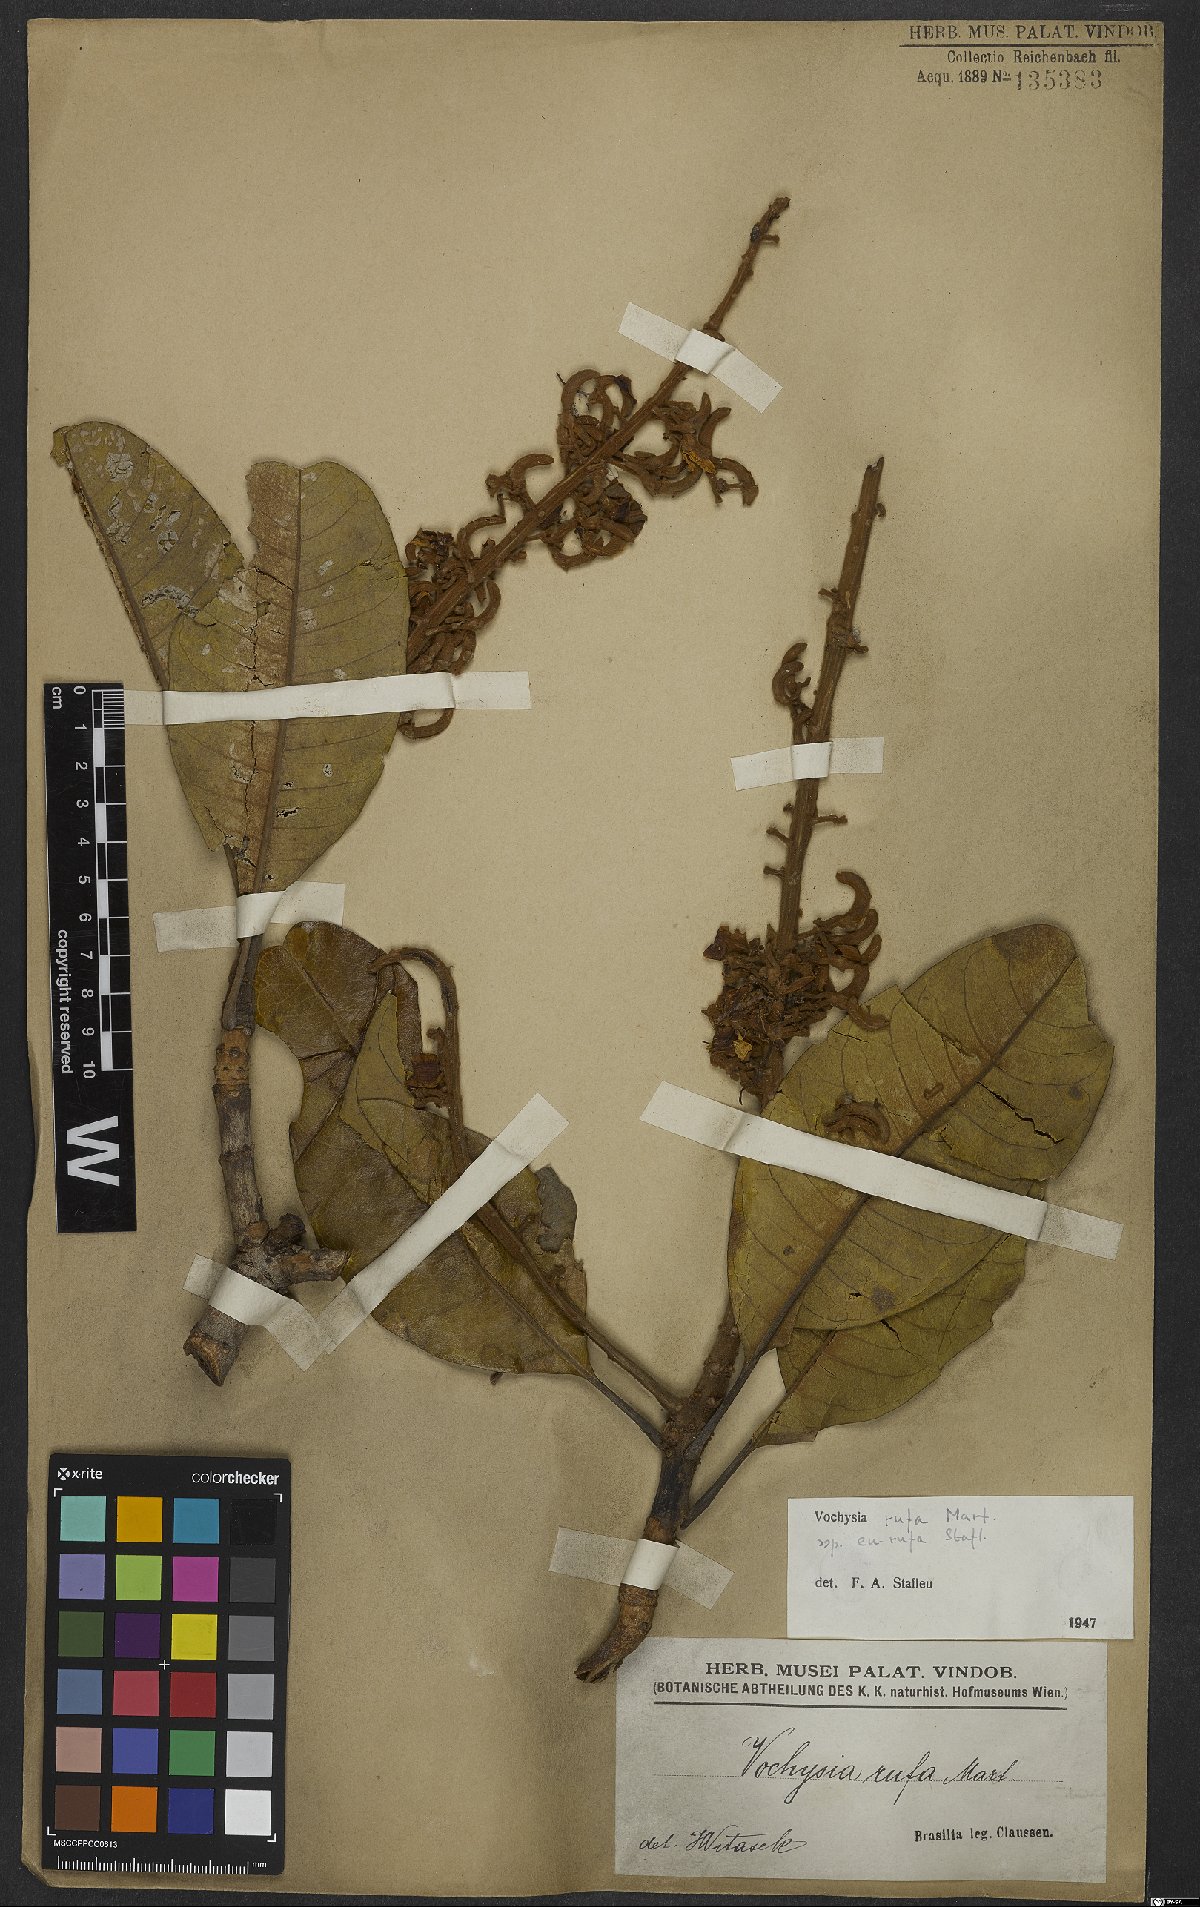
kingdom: Plantae
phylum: Tracheophyta
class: Magnoliopsida
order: Myrtales
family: Vochysiaceae
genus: Vochysia
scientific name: Vochysia rufa
